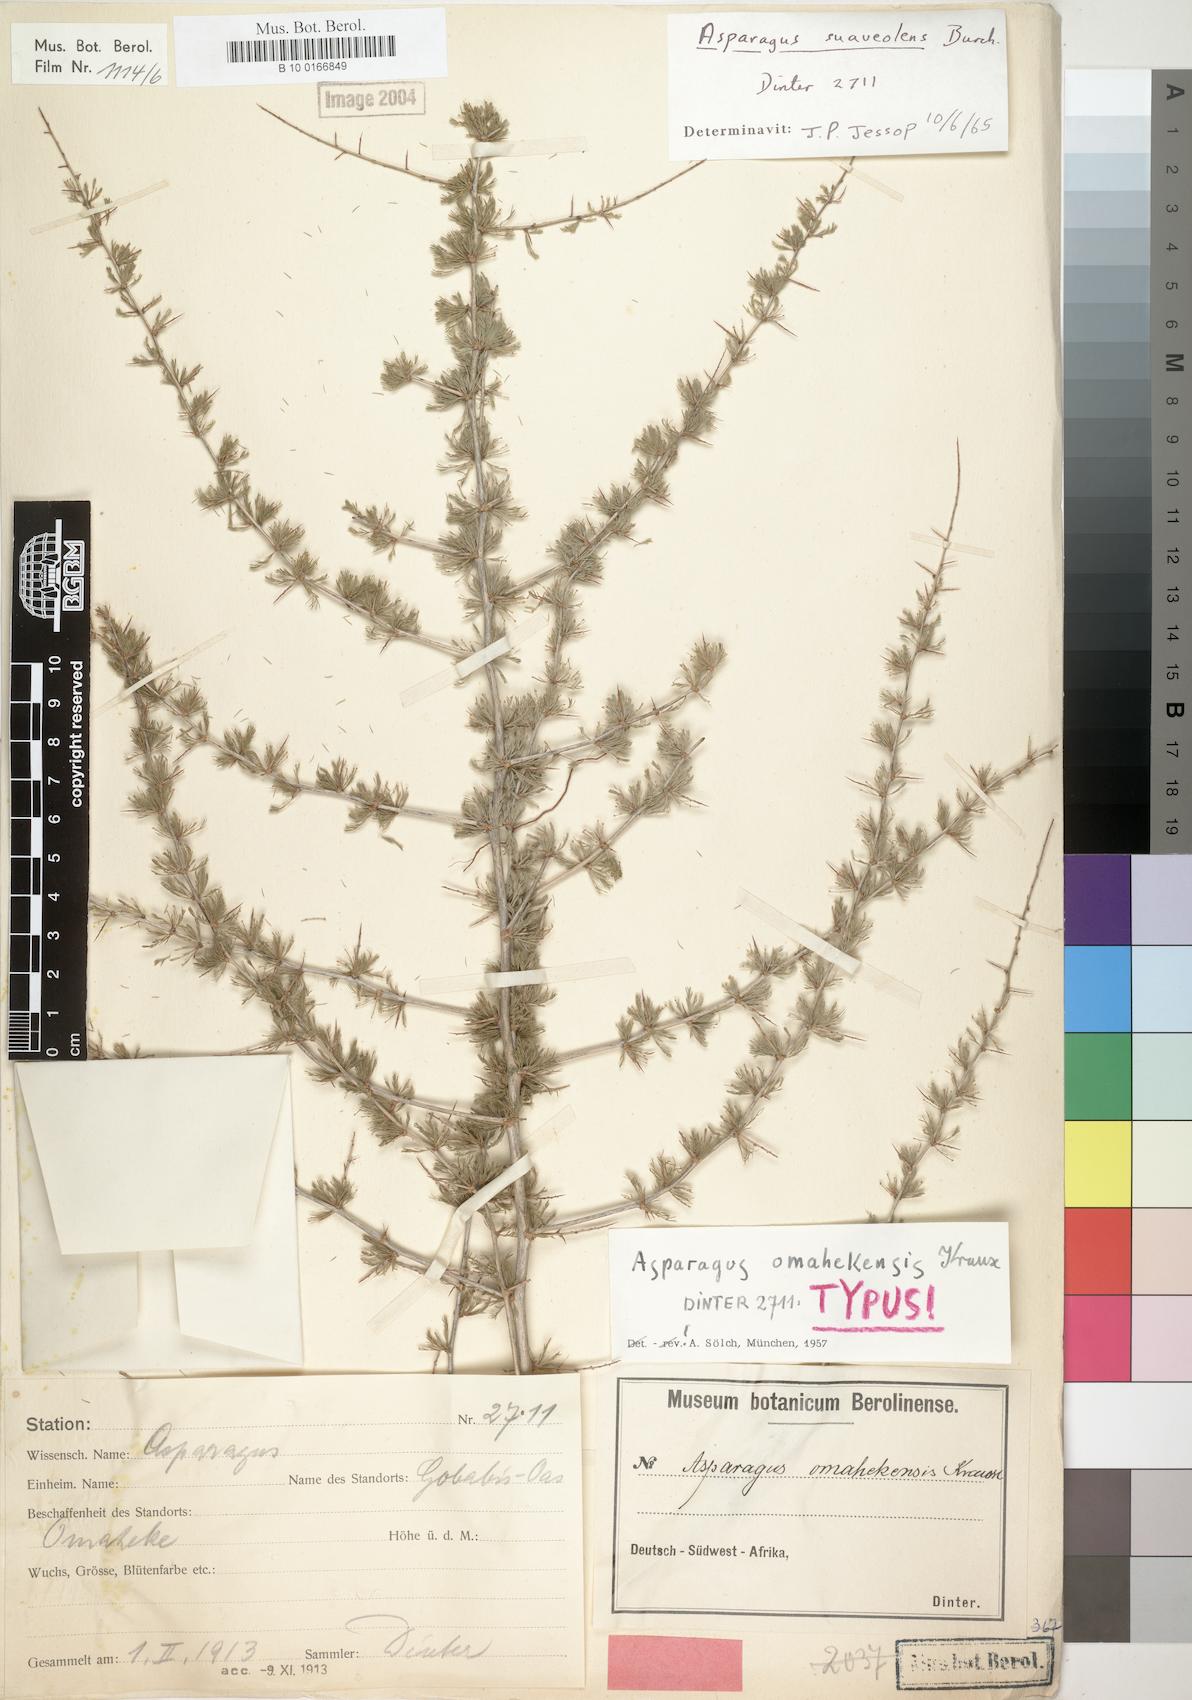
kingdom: Plantae
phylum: Tracheophyta
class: Liliopsida
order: Asparagales
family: Asparagaceae
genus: Asparagus
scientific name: Asparagus suaveolens
